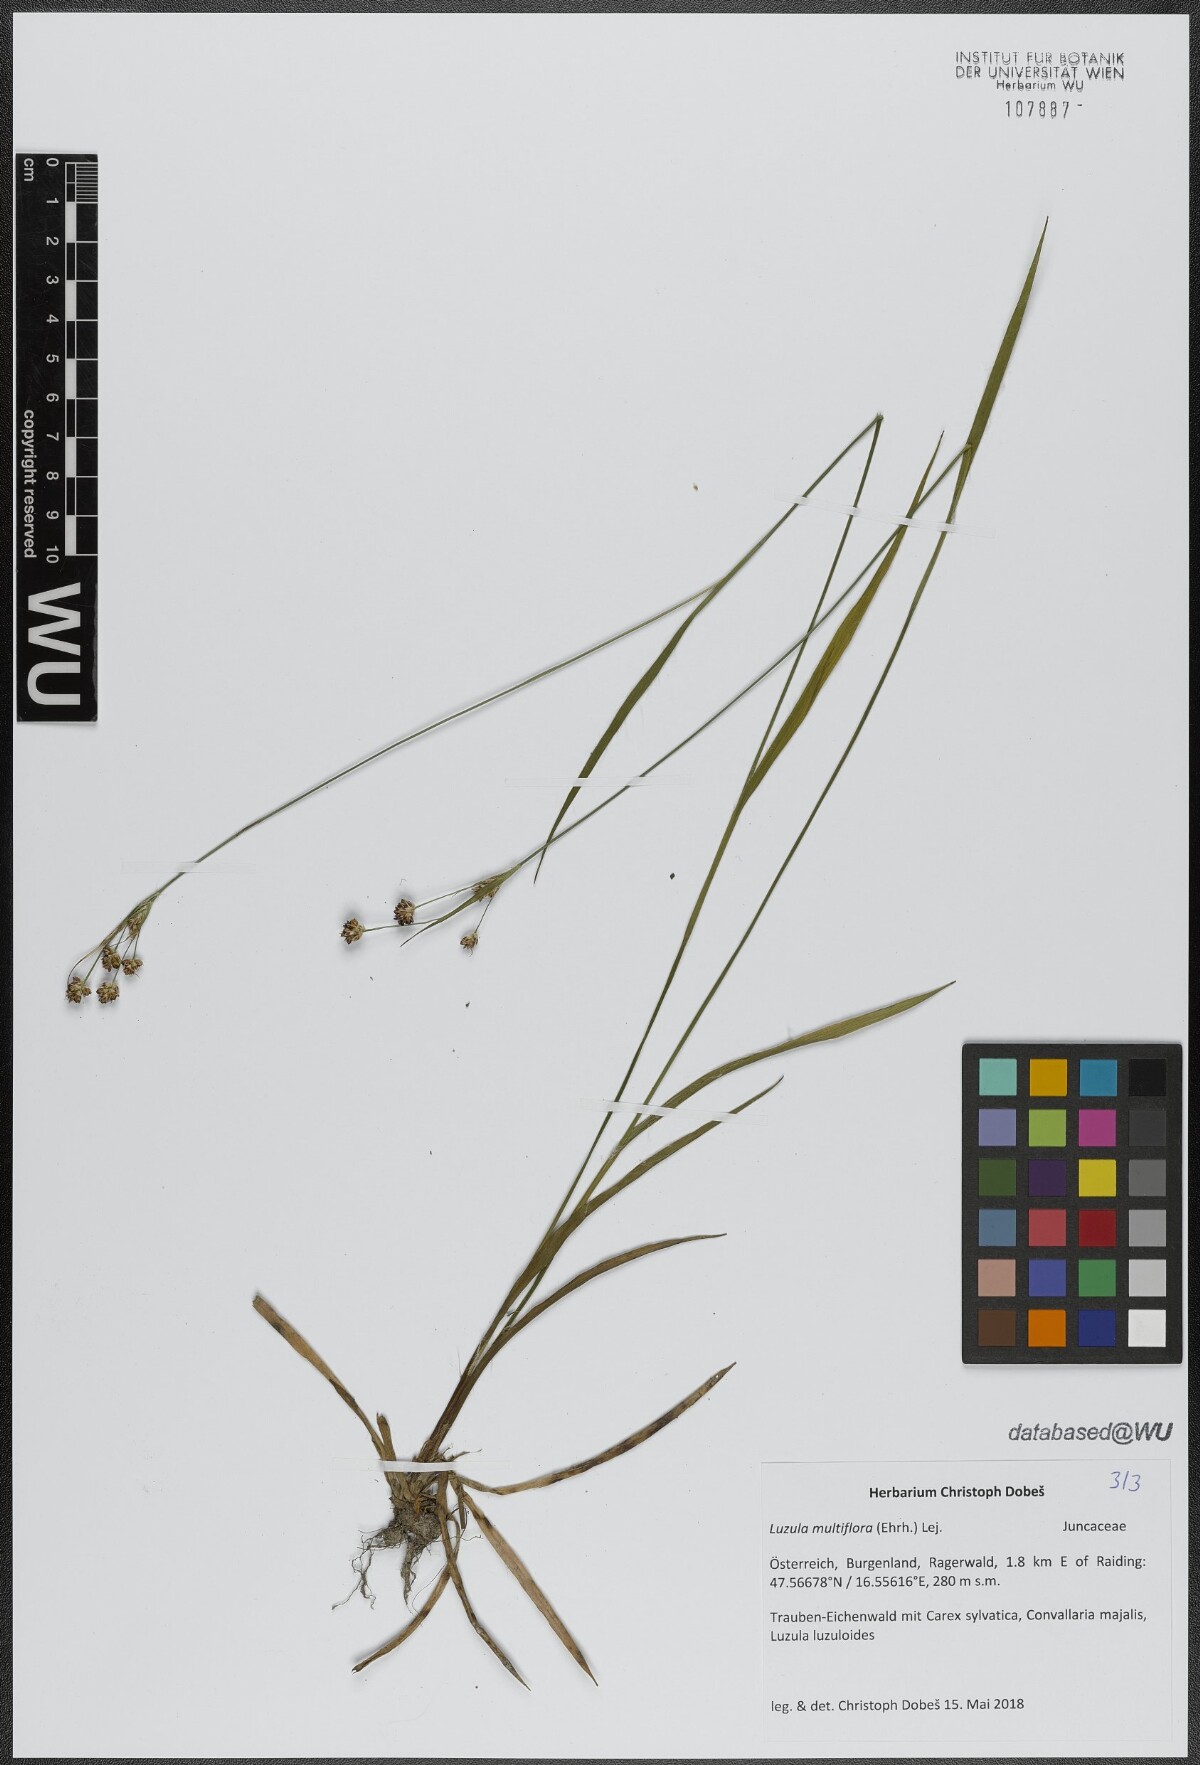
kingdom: Plantae
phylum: Tracheophyta
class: Liliopsida
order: Poales
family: Juncaceae
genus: Luzula
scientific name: Luzula multiflora
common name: Heath wood-rush
